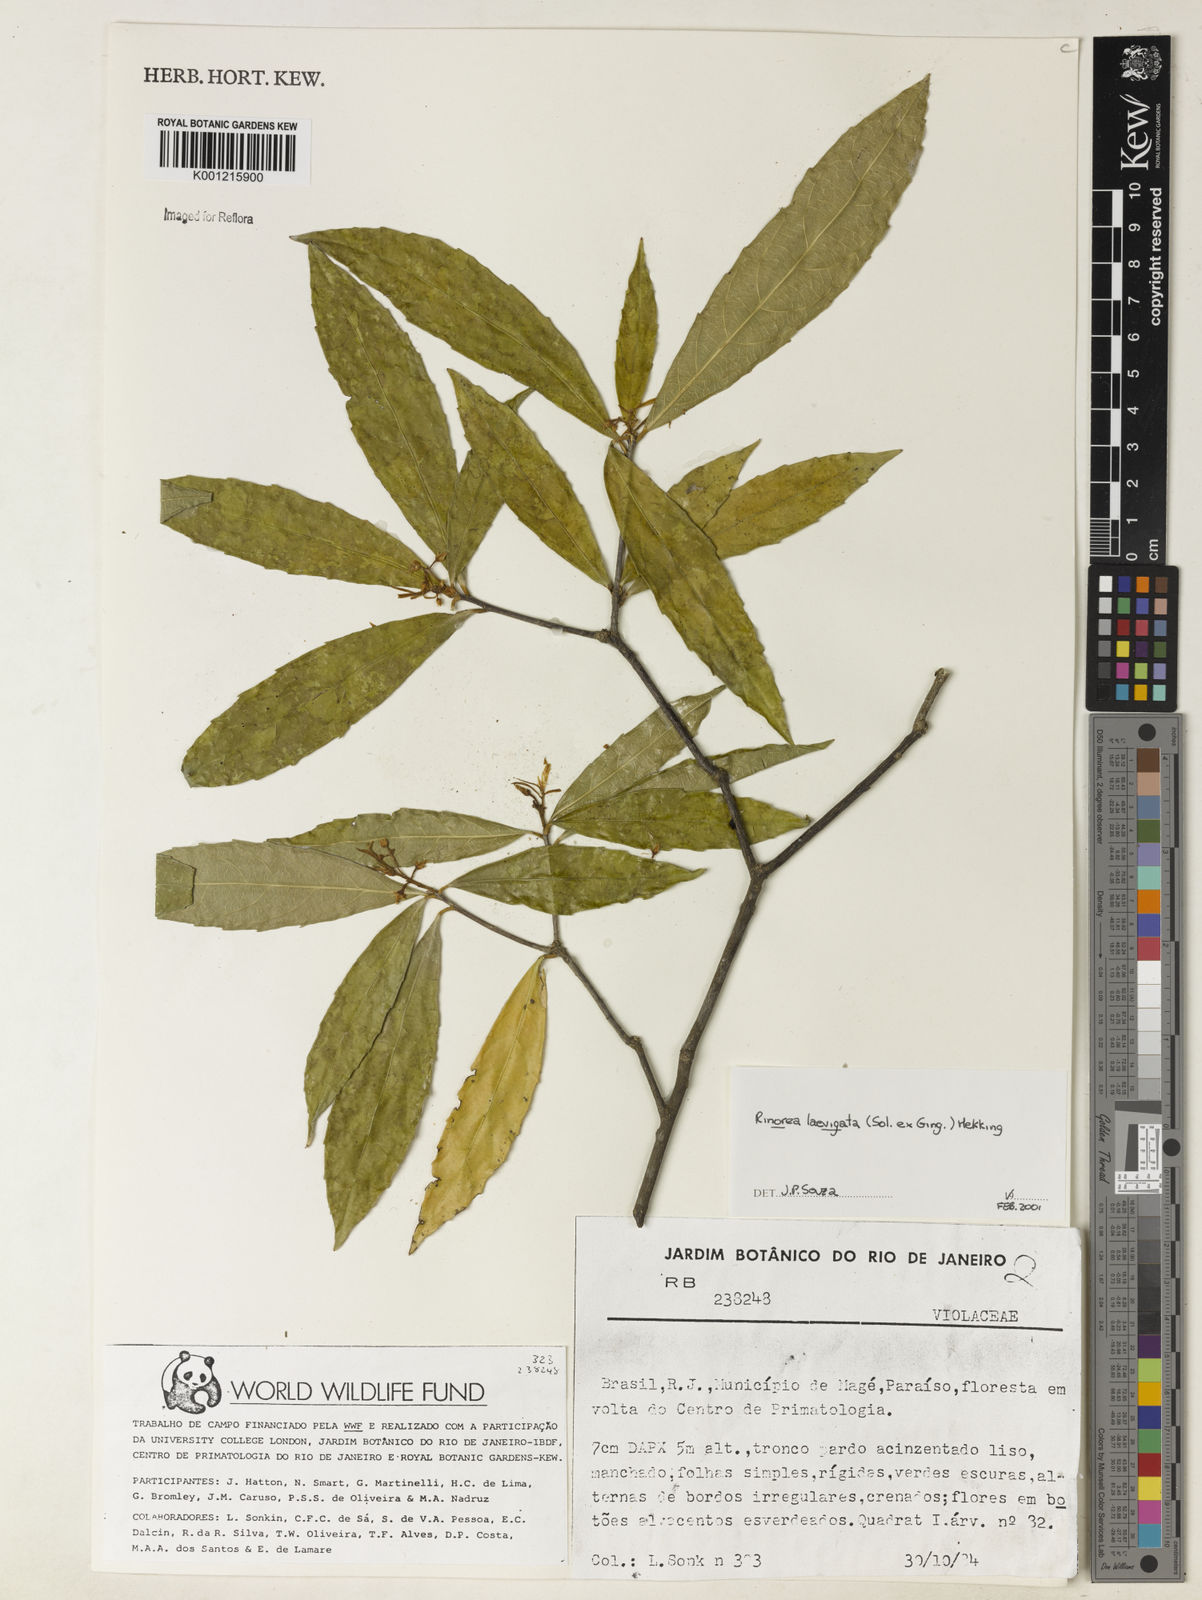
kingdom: Plantae
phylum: Tracheophyta
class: Magnoliopsida
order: Malpighiales
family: Violaceae
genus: Rinorea
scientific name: Rinorea
